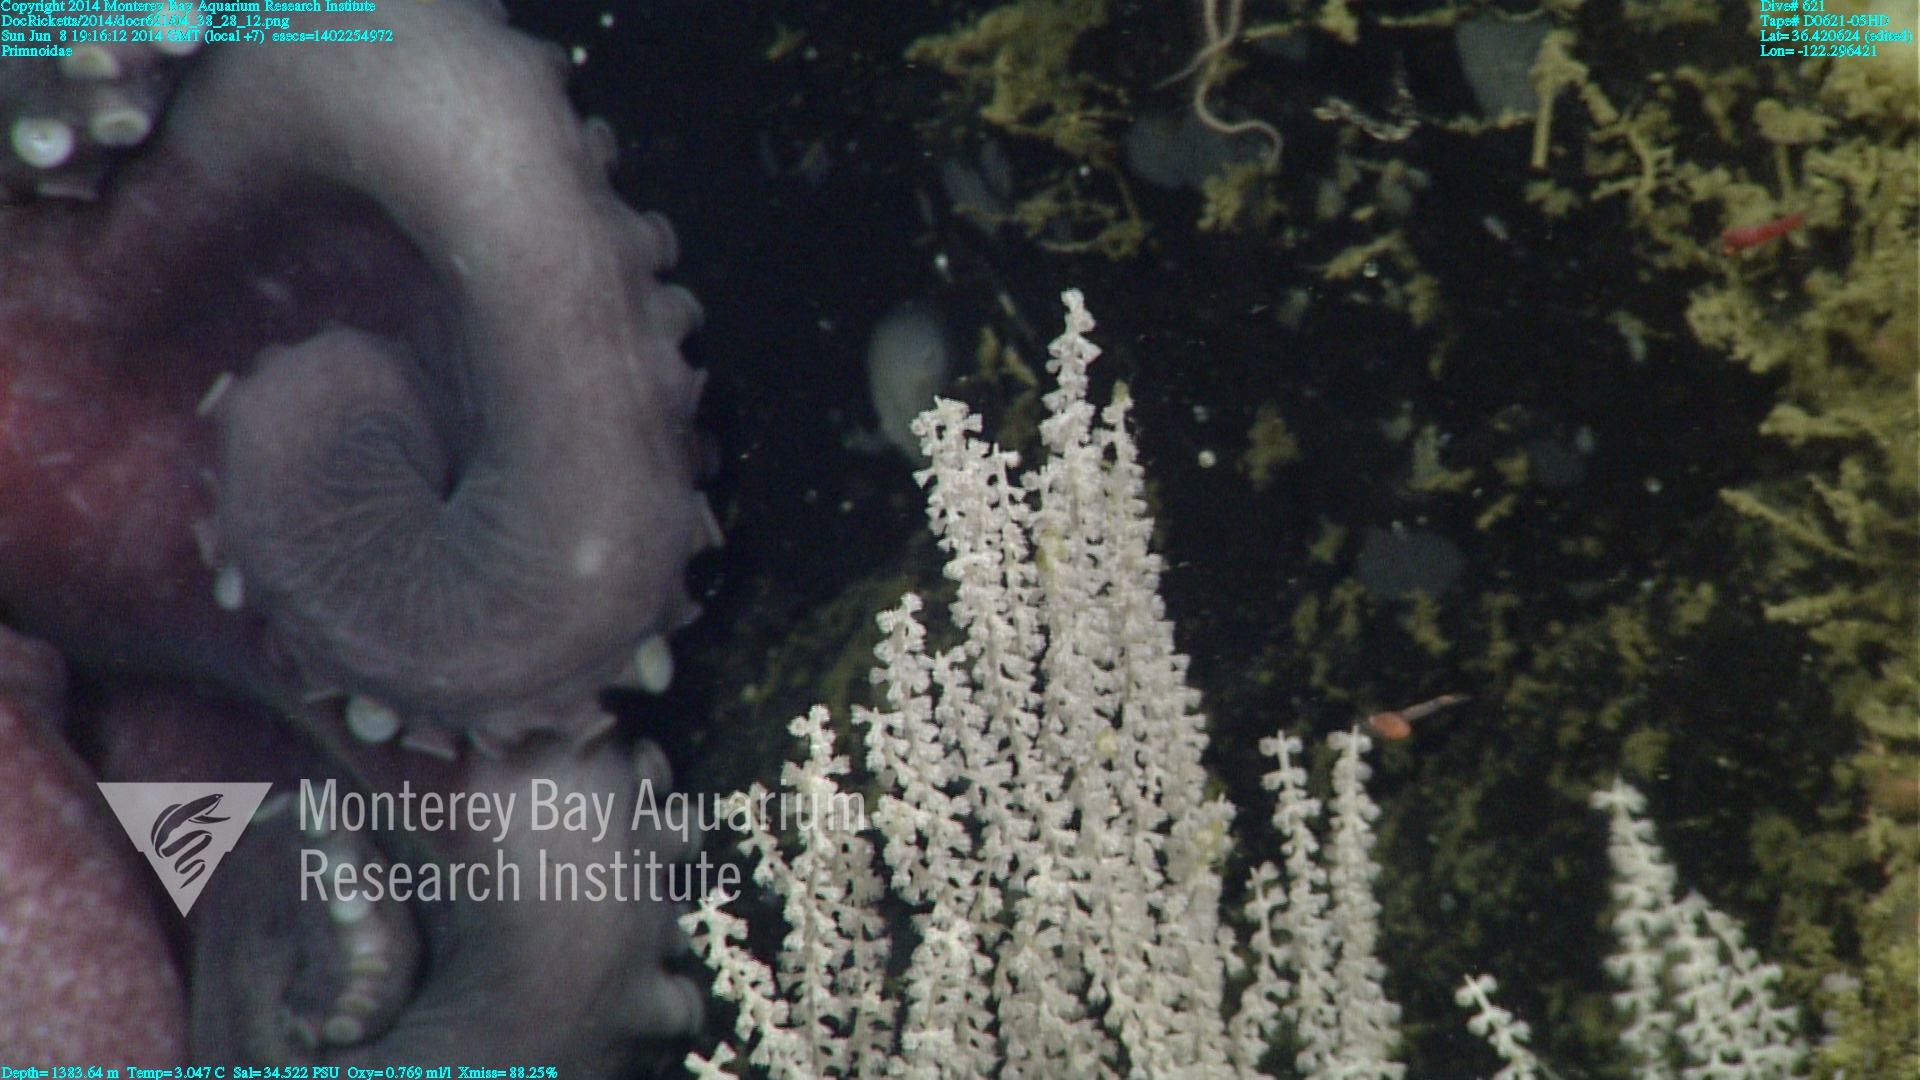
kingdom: Animalia
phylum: Cnidaria
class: Anthozoa
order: Scleralcyonacea
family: Primnoidae
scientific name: Primnoidae
